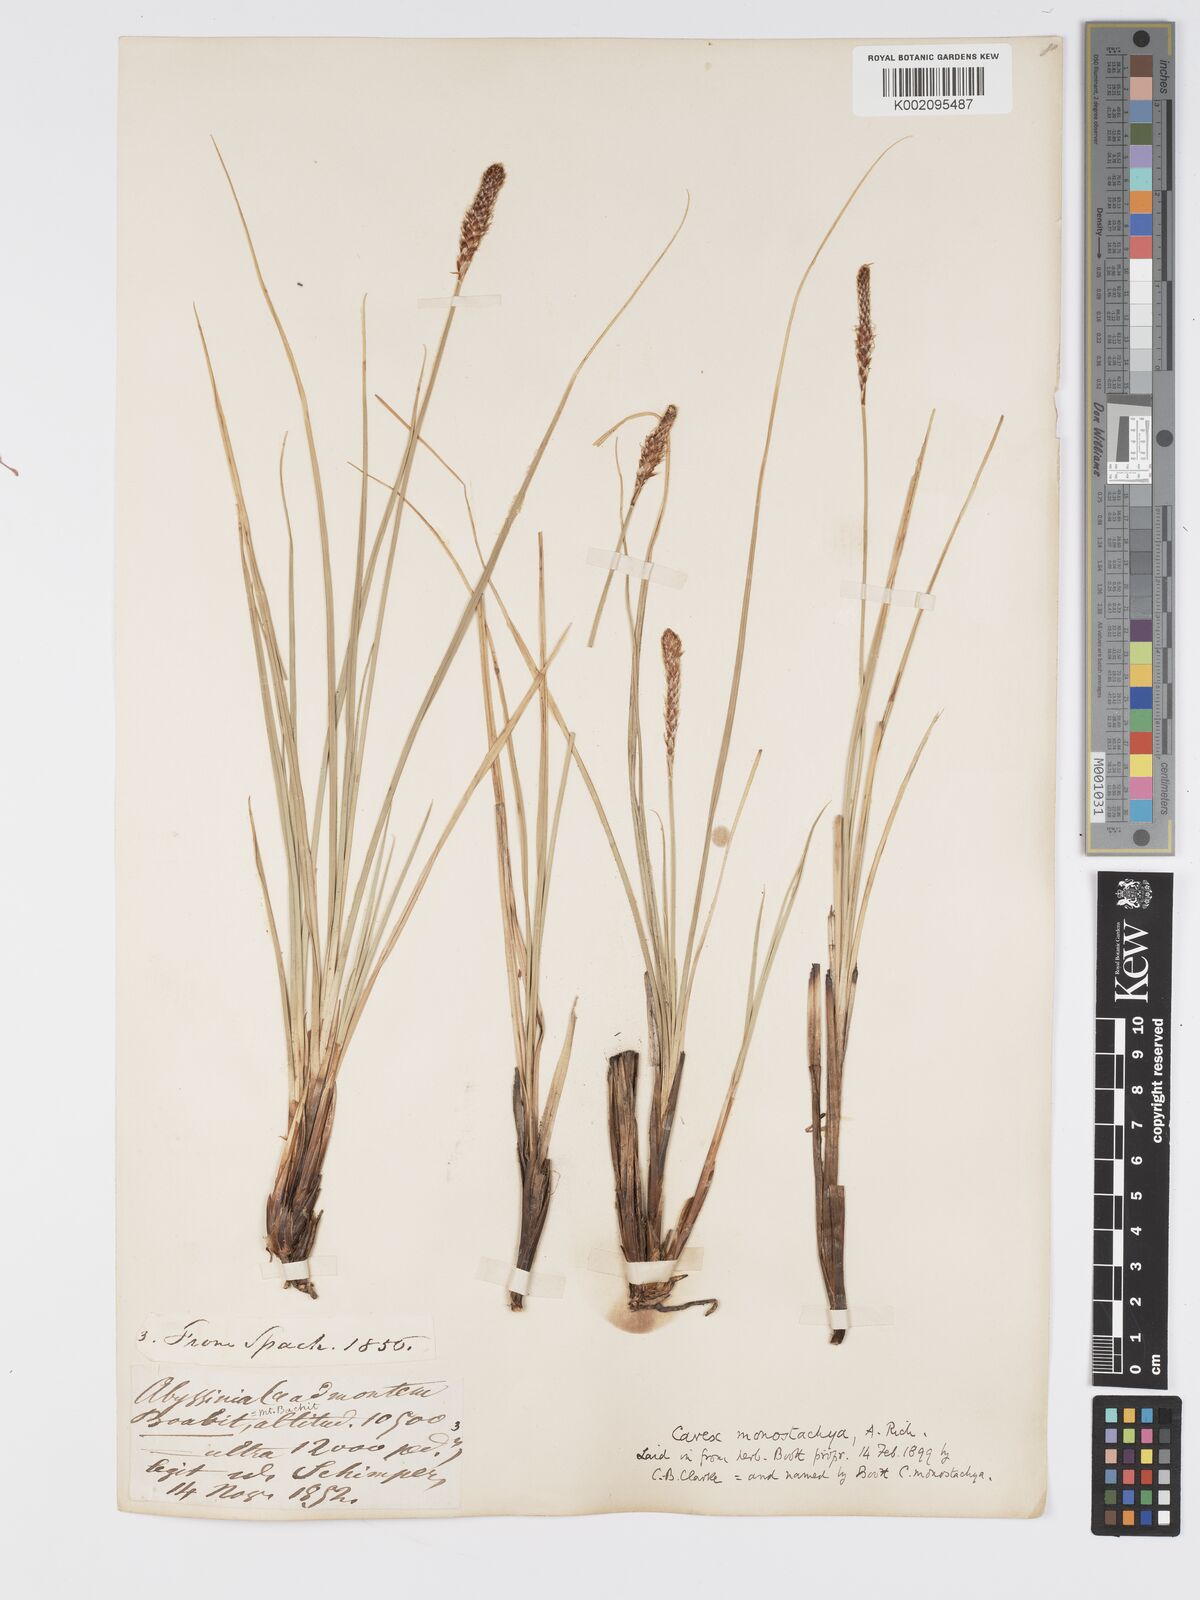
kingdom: Plantae
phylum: Tracheophyta
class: Liliopsida
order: Poales
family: Cyperaceae
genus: Carex
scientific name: Carex monostachya
